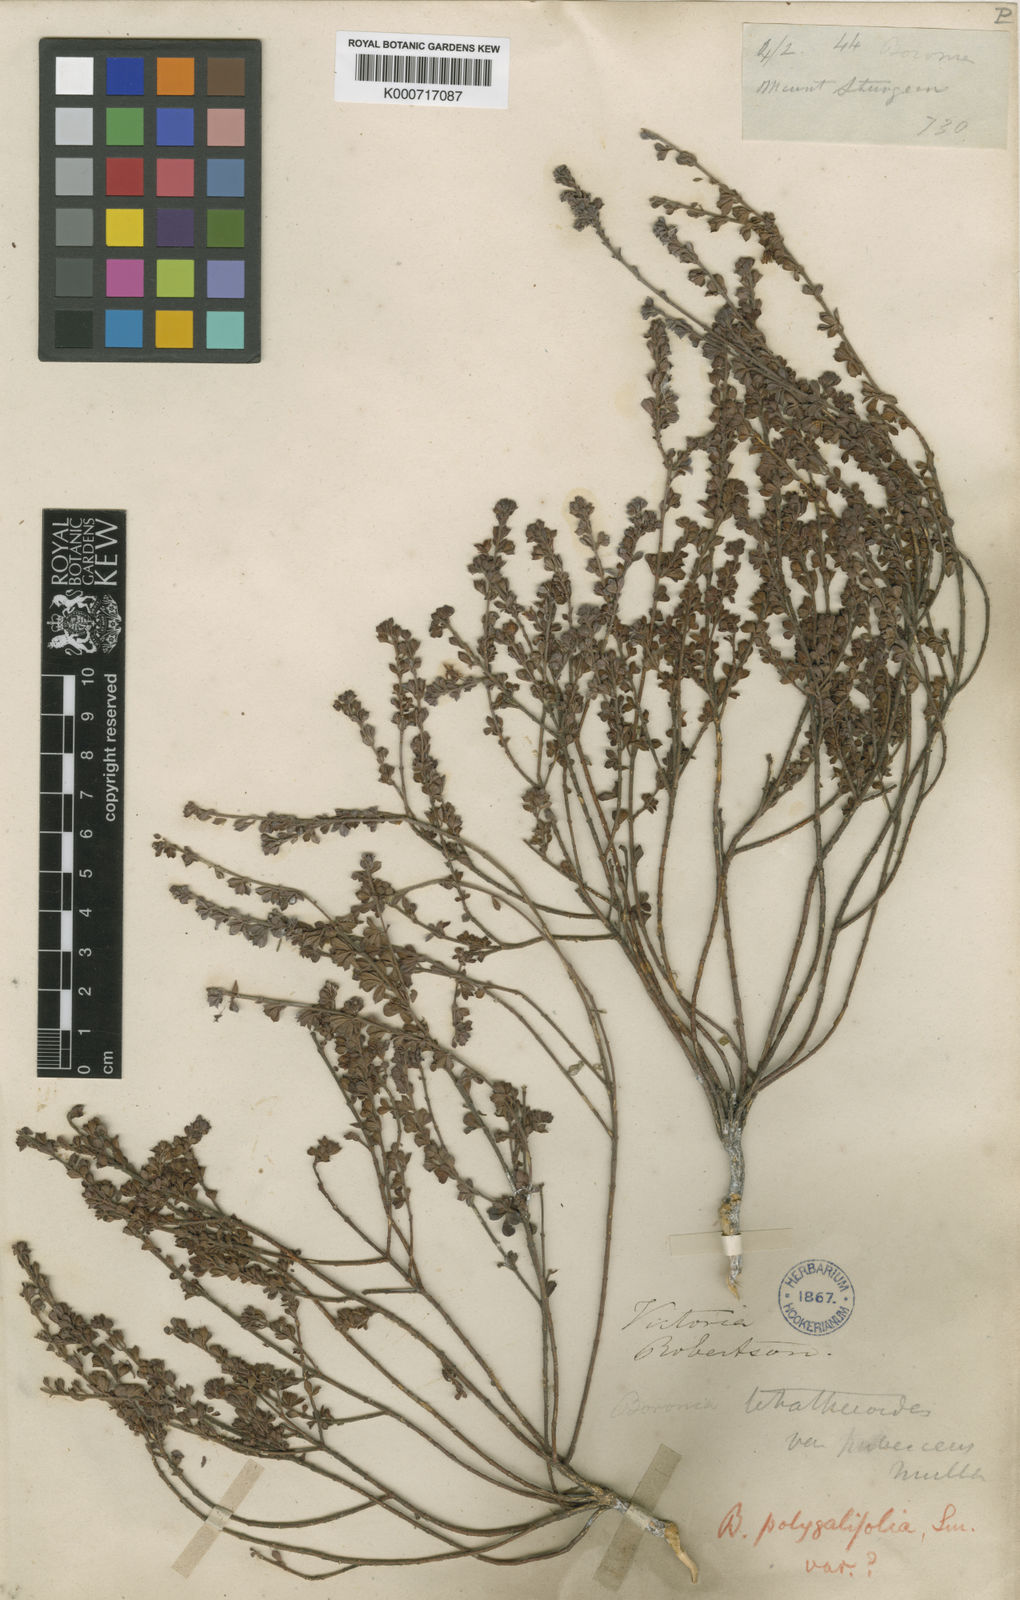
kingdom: Plantae
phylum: Tracheophyta
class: Magnoliopsida
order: Sapindales
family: Rutaceae
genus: Cyanothamnus
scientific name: Cyanothamnus nanus
